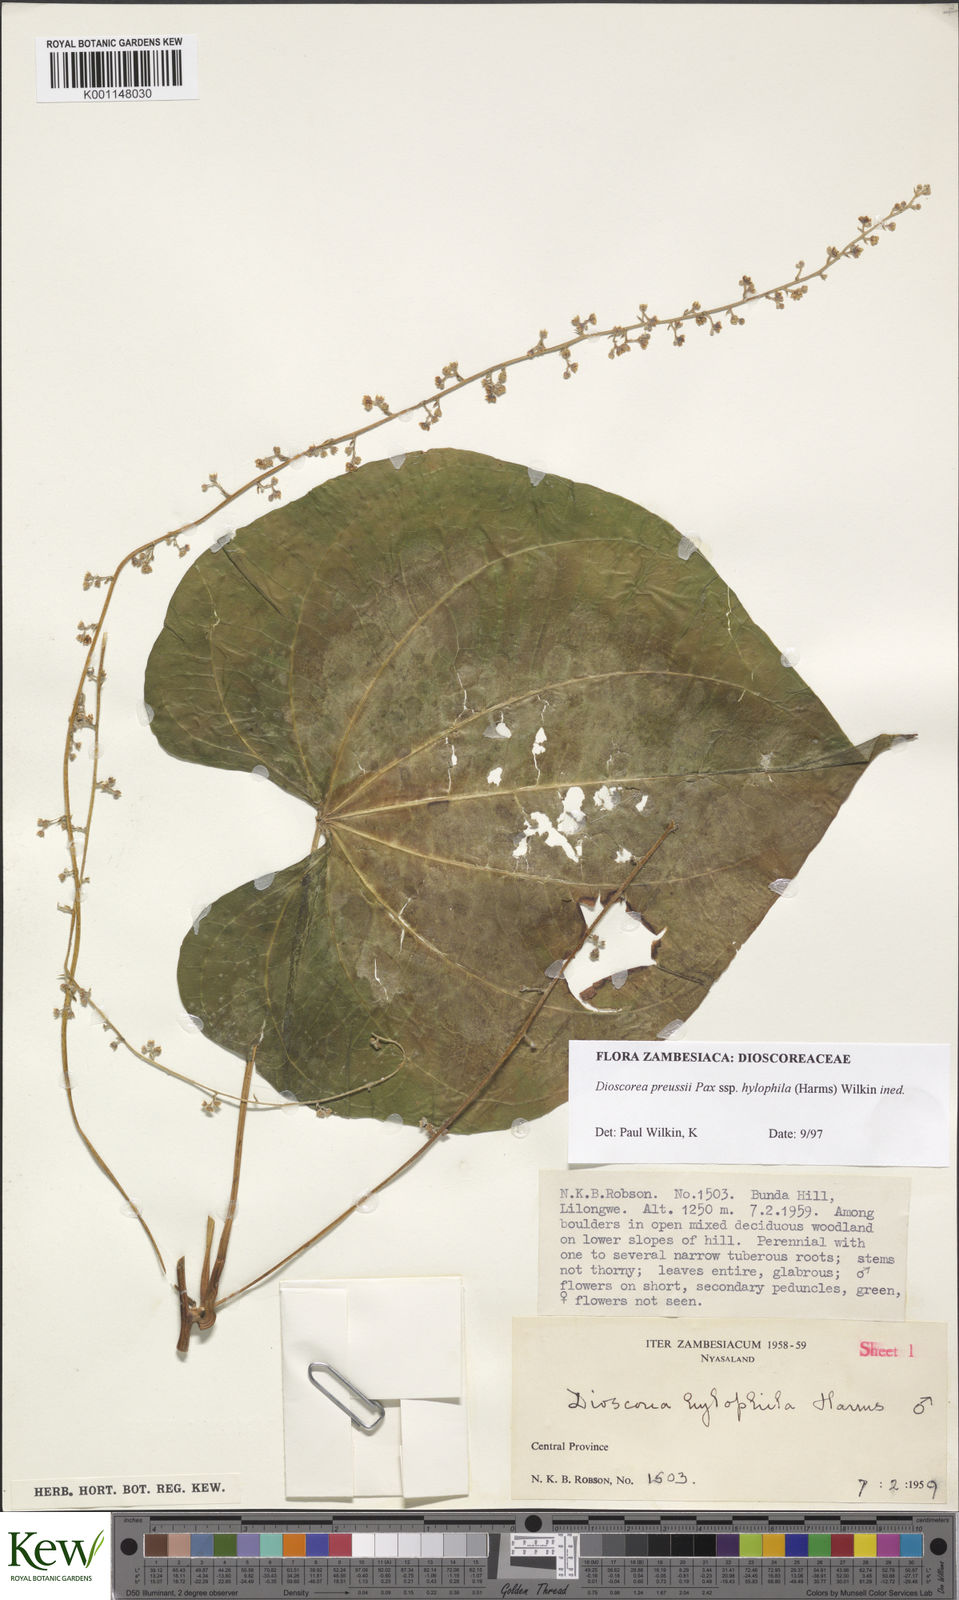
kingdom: Plantae
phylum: Tracheophyta
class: Liliopsida
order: Dioscoreales
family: Dioscoreaceae
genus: Dioscorea
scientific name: Dioscorea preussii
